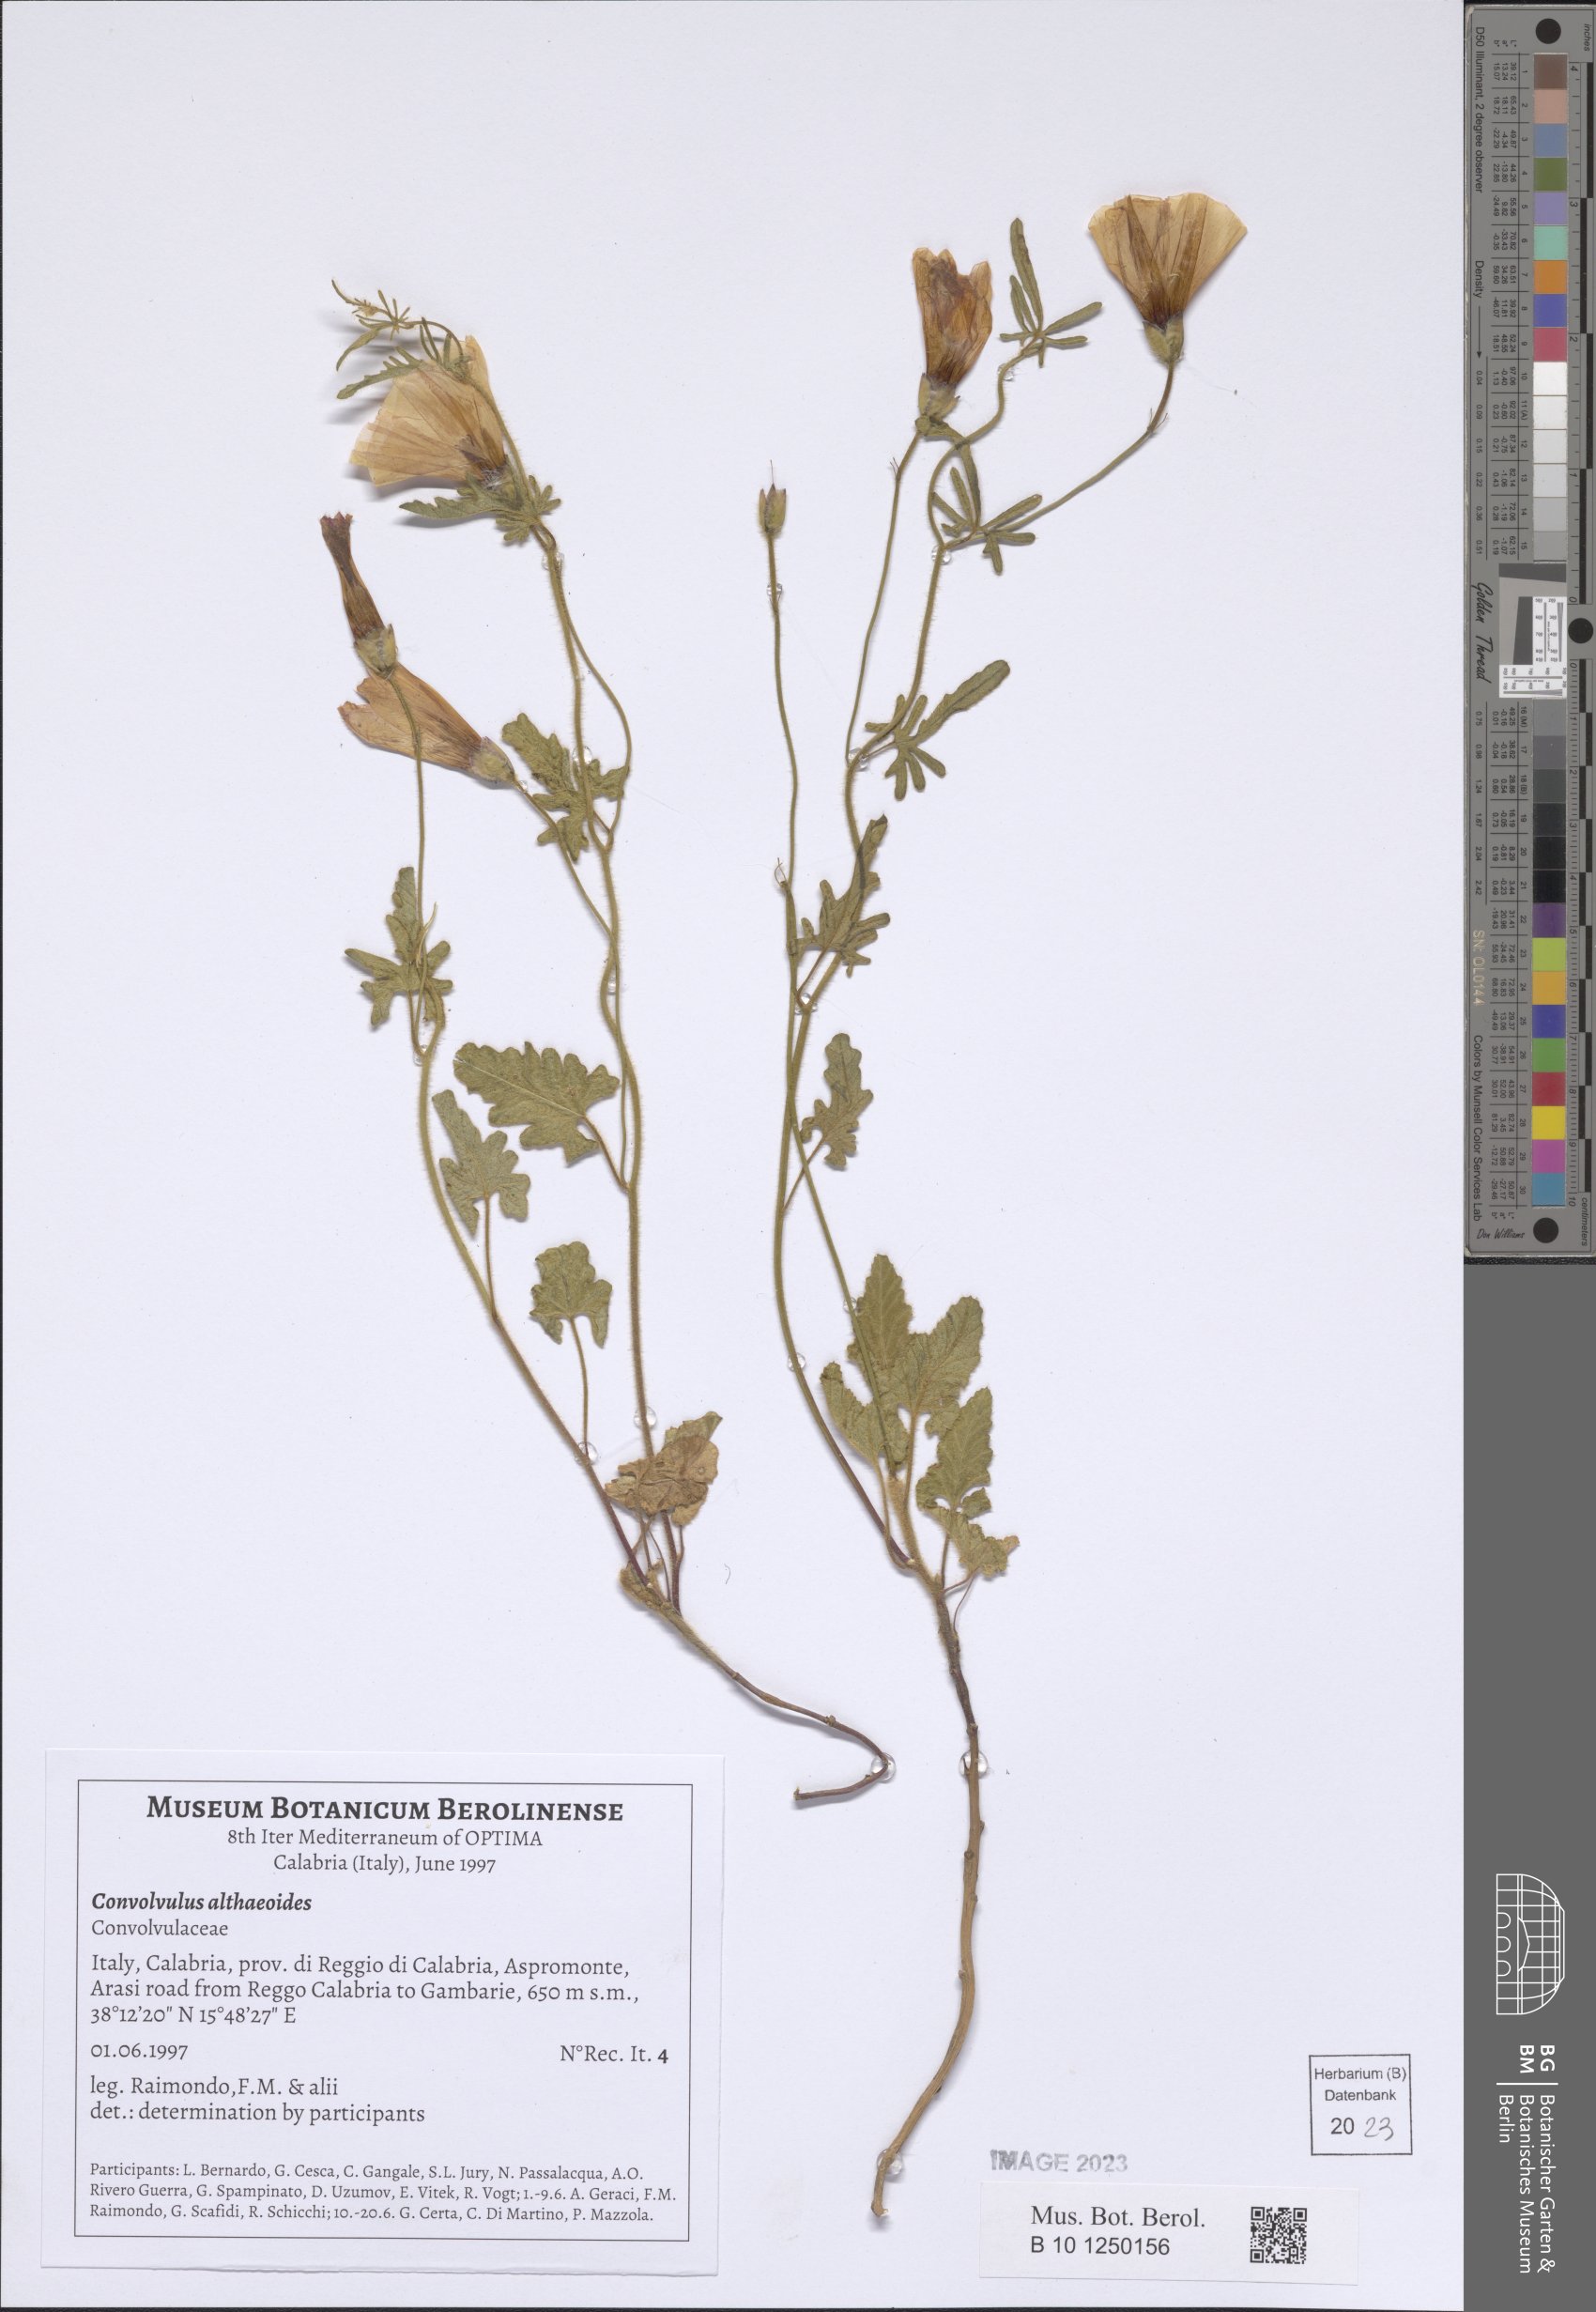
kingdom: Plantae
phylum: Tracheophyta
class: Magnoliopsida
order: Solanales
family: Convolvulaceae
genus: Convolvulus
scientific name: Convolvulus althaeoides
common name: Mallow bindweed
